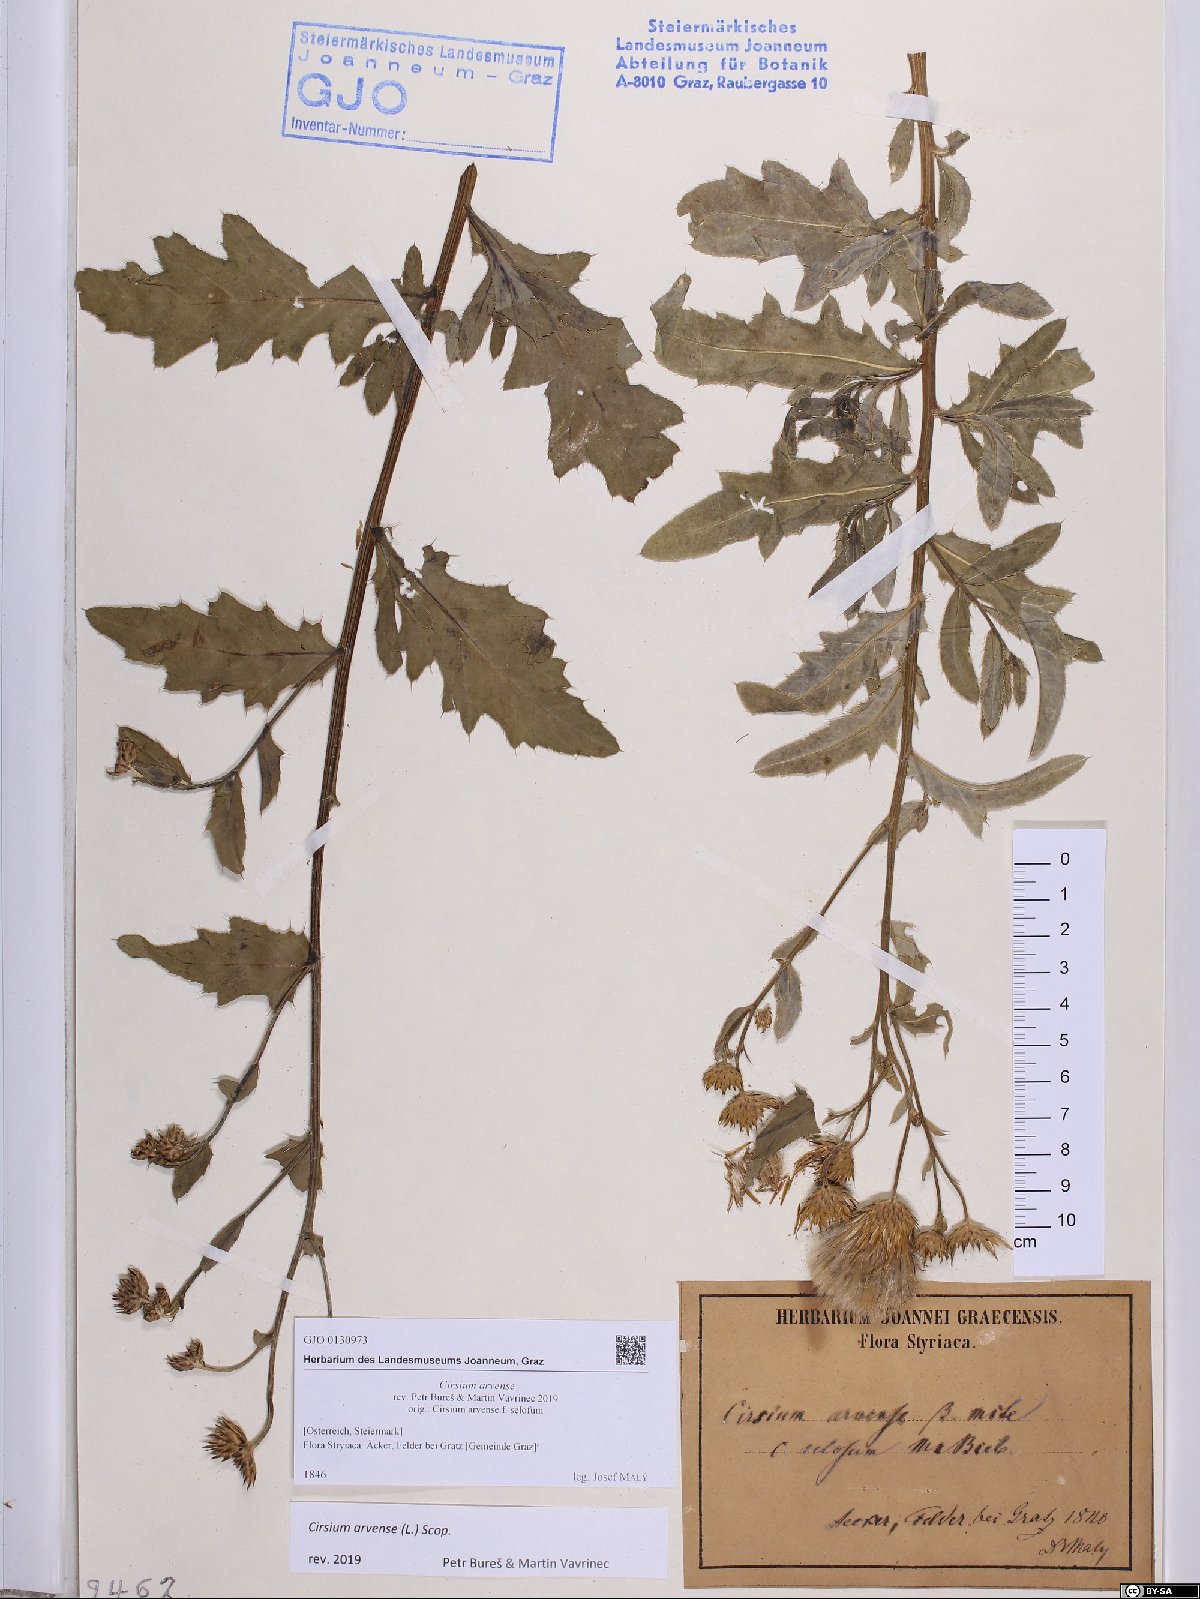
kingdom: Plantae
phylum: Tracheophyta
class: Magnoliopsida
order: Asterales
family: Asteraceae
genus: Cirsium
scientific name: Cirsium arvense
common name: Creeping thistle
